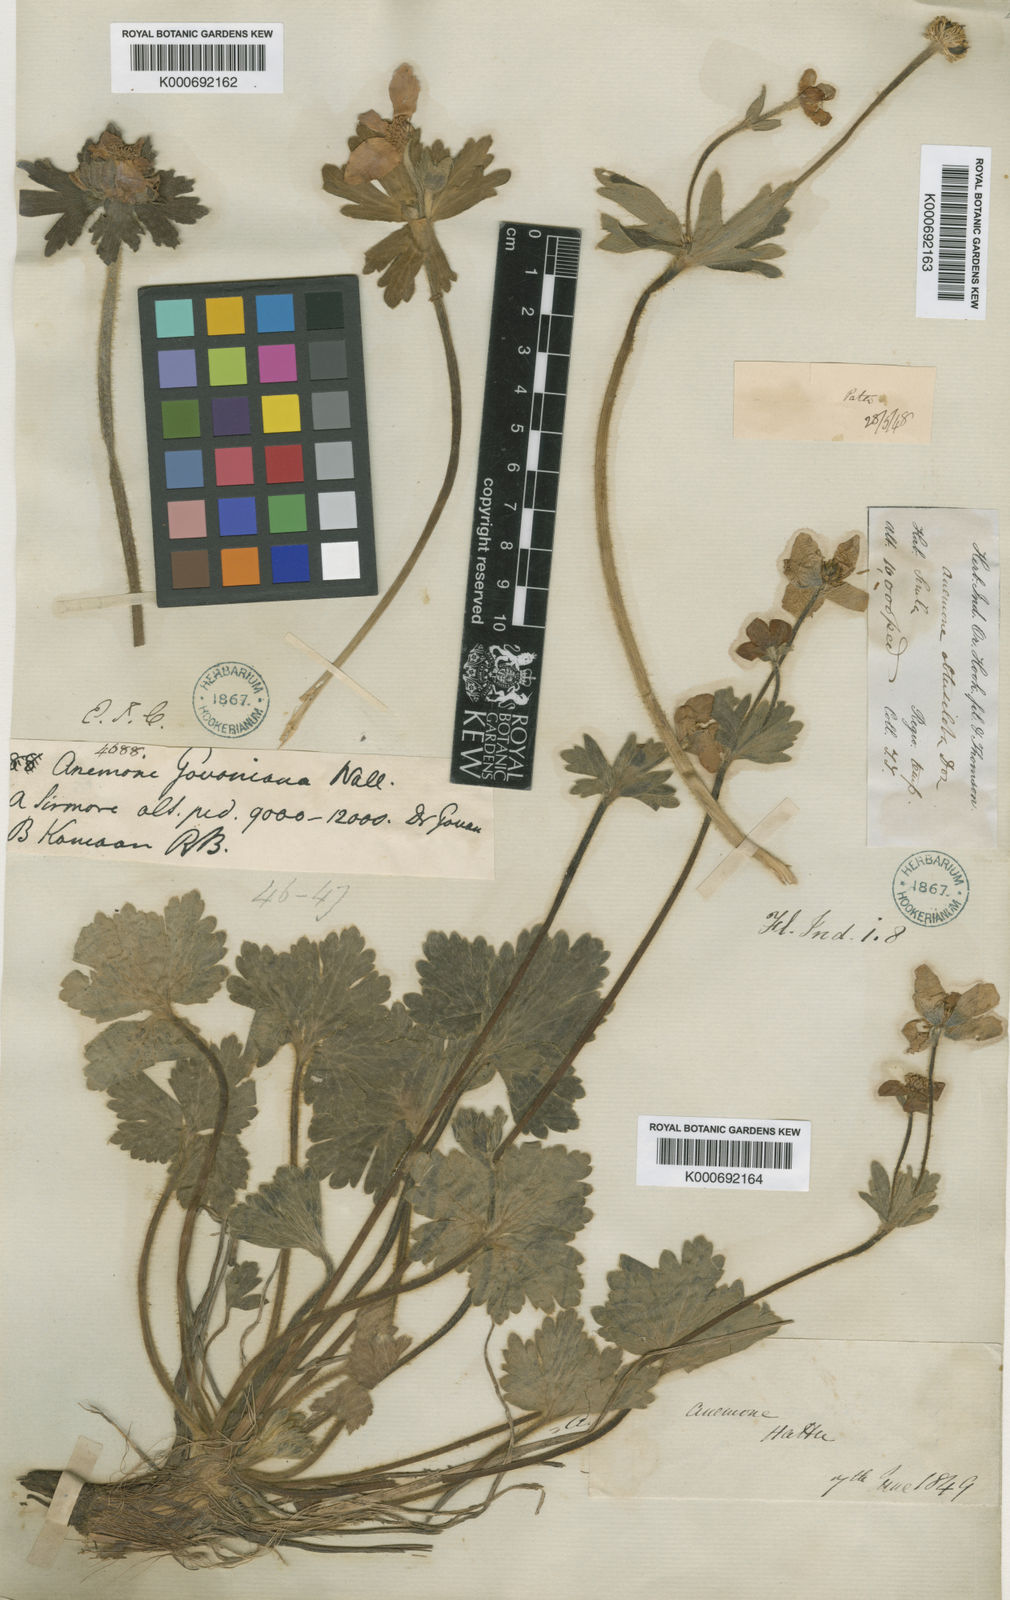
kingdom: Plantae
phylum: Tracheophyta
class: Magnoliopsida
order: Ranunculales
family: Ranunculaceae
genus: Anemonastrum
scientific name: Anemonastrum obtusilobum
